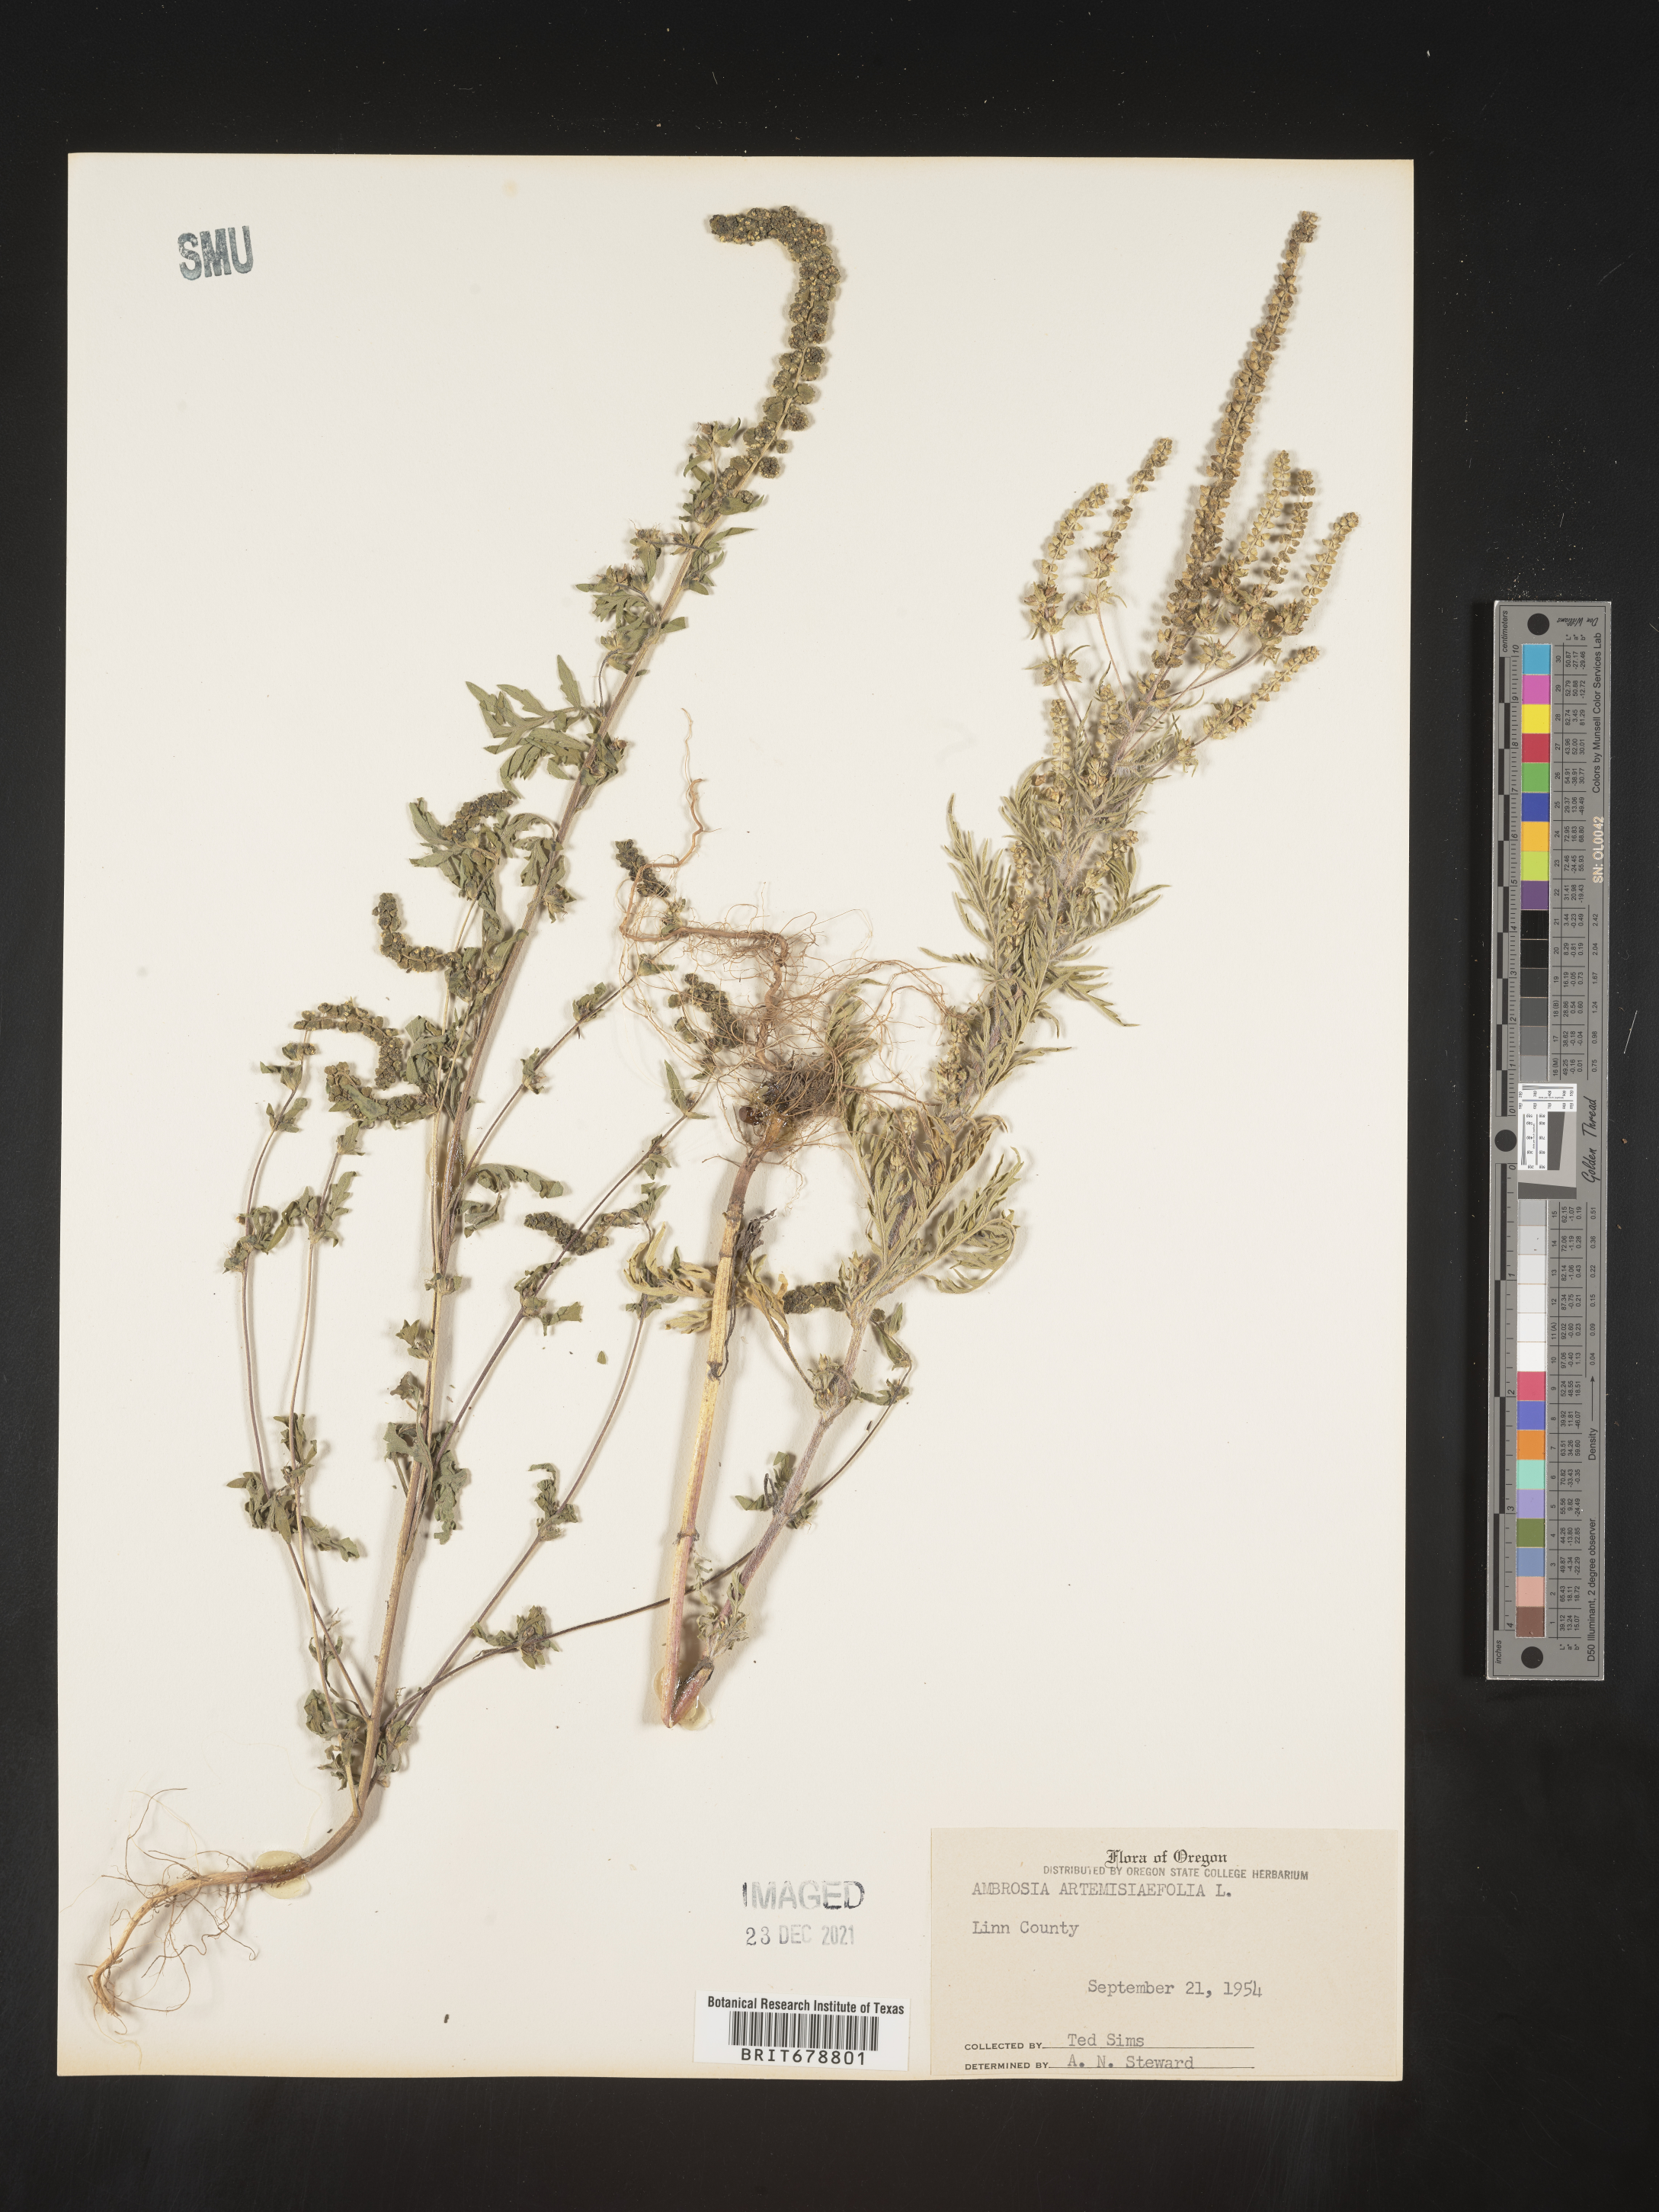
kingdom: Plantae
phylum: Tracheophyta
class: Magnoliopsida
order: Asterales
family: Asteraceae
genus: Ambrosia
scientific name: Ambrosia artemisiifolia
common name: Annual ragweed
